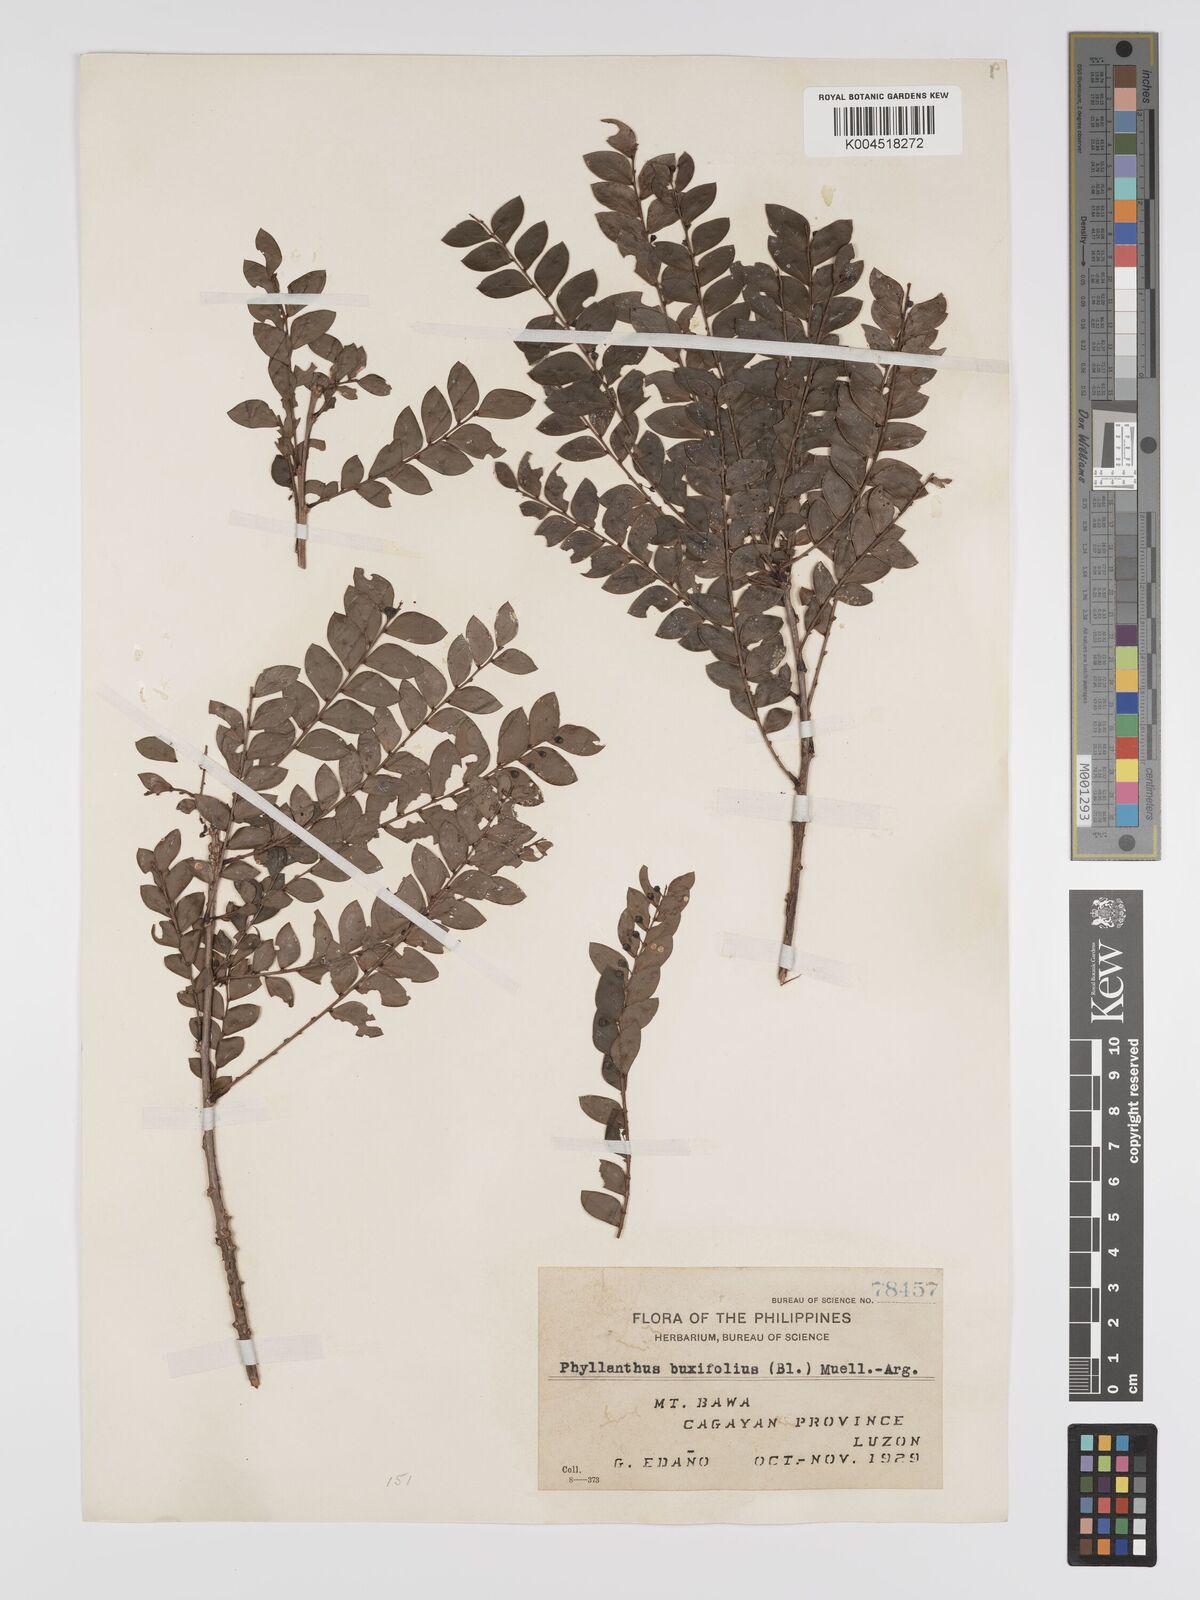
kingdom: Plantae
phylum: Tracheophyta
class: Magnoliopsida
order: Malpighiales
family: Phyllanthaceae
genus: Phyllanthus
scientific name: Phyllanthus buxifolius
